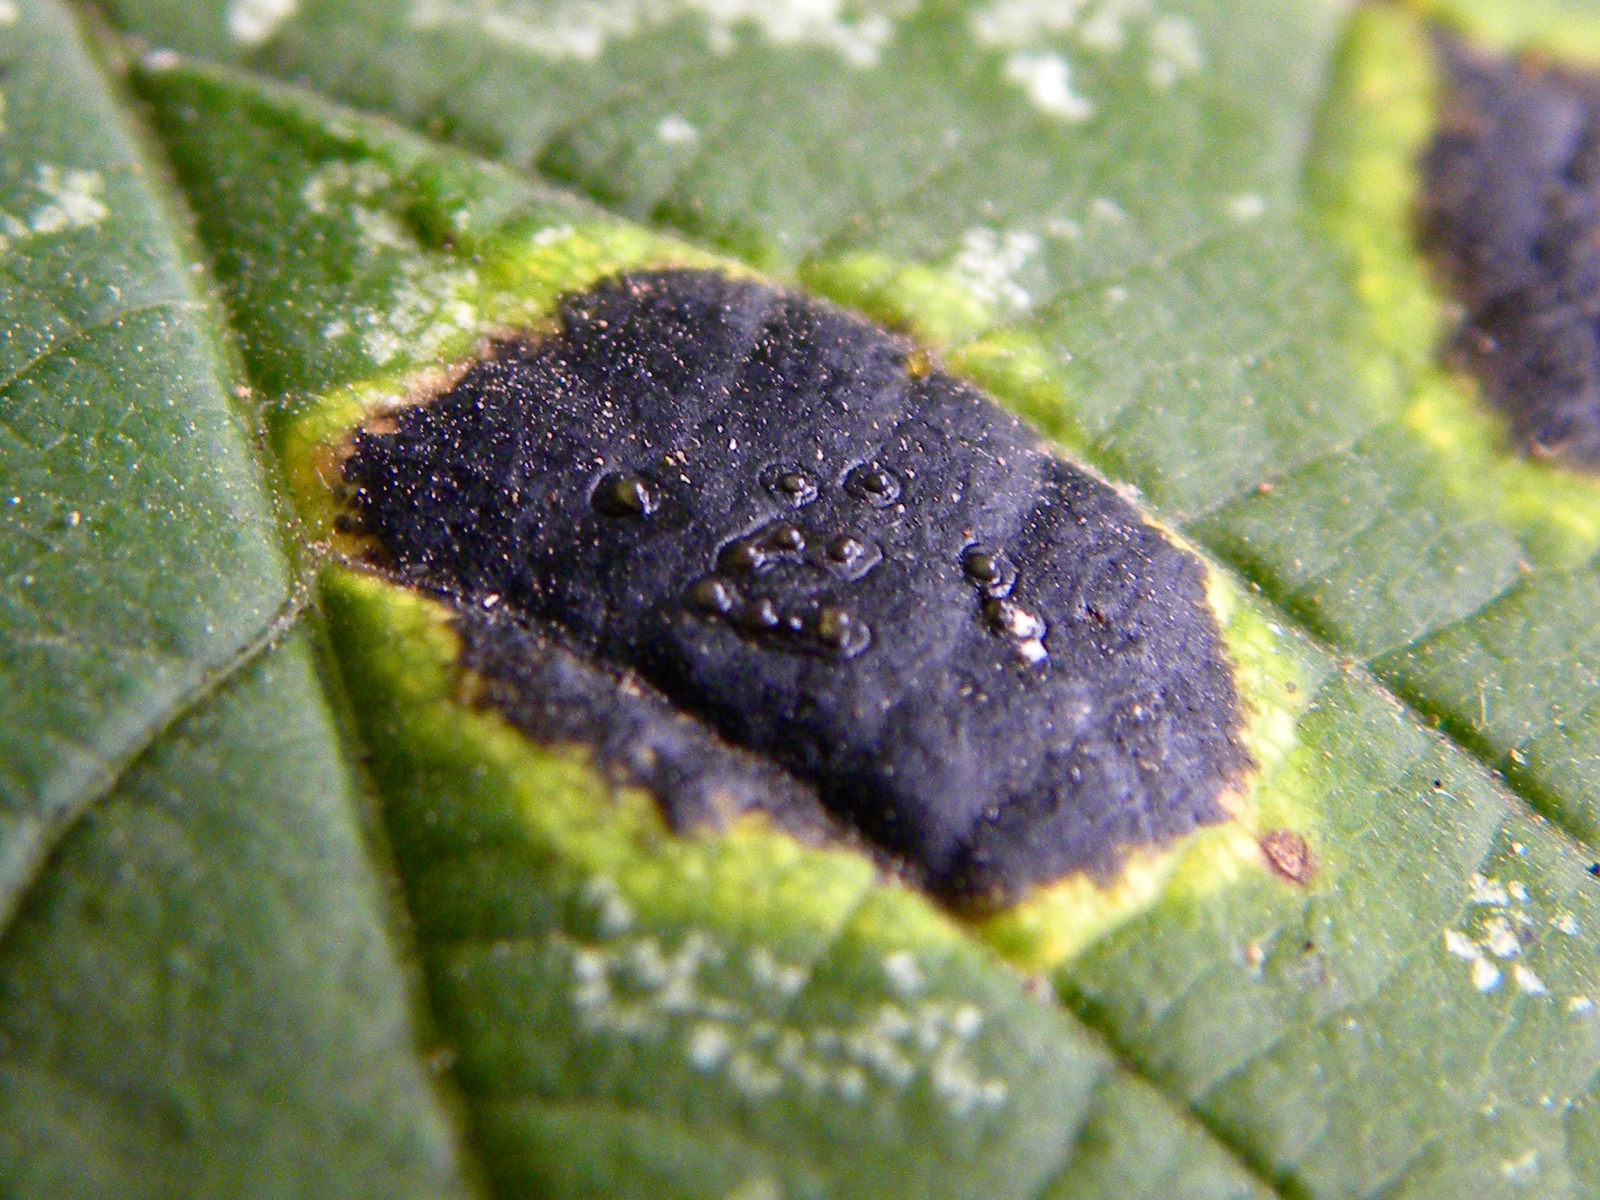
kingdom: Fungi
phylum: Ascomycota
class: Leotiomycetes
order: Rhytismatales
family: Rhytismataceae
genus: Rhytisma
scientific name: Rhytisma acerinum
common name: ahorn-rynkeplet
